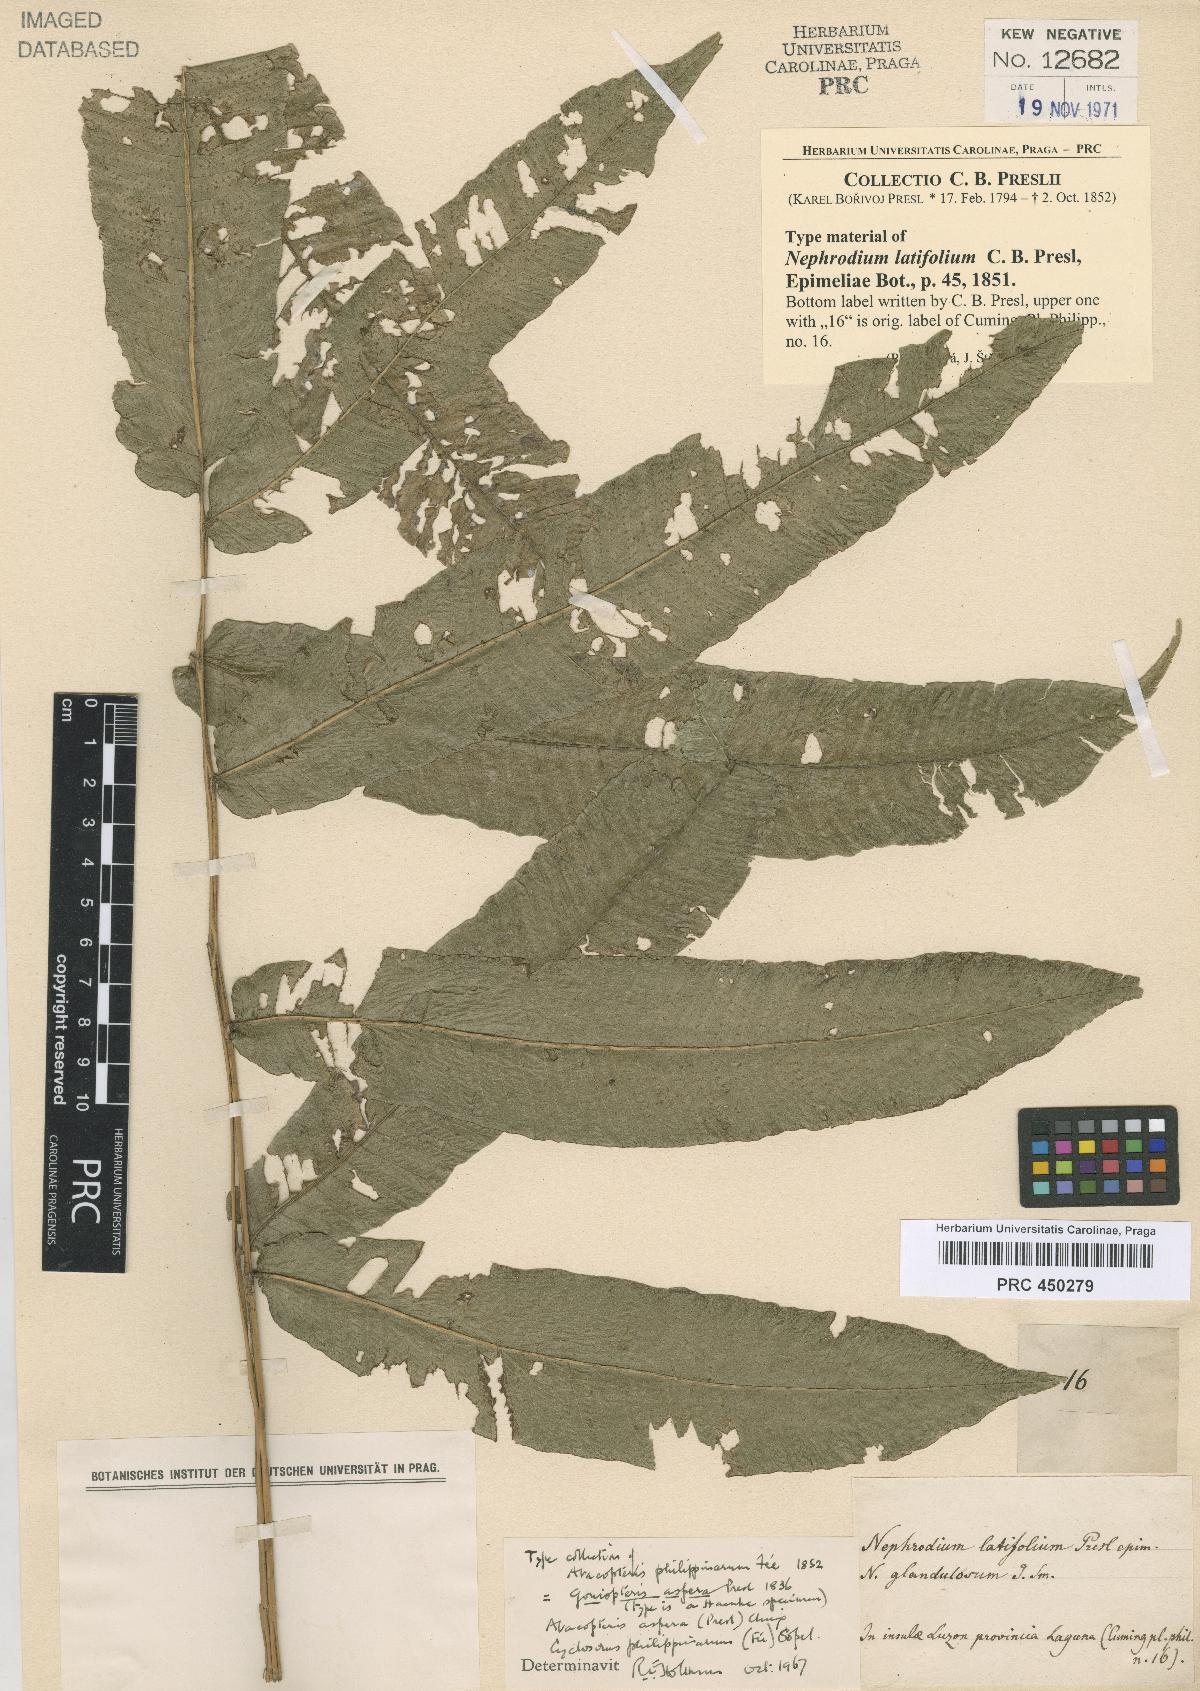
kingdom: Plantae
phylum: Tracheophyta
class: Polypodiopsida
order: Polypodiales
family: Thelypteridaceae
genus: Pronephrium
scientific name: Pronephrium menisciicarpon
